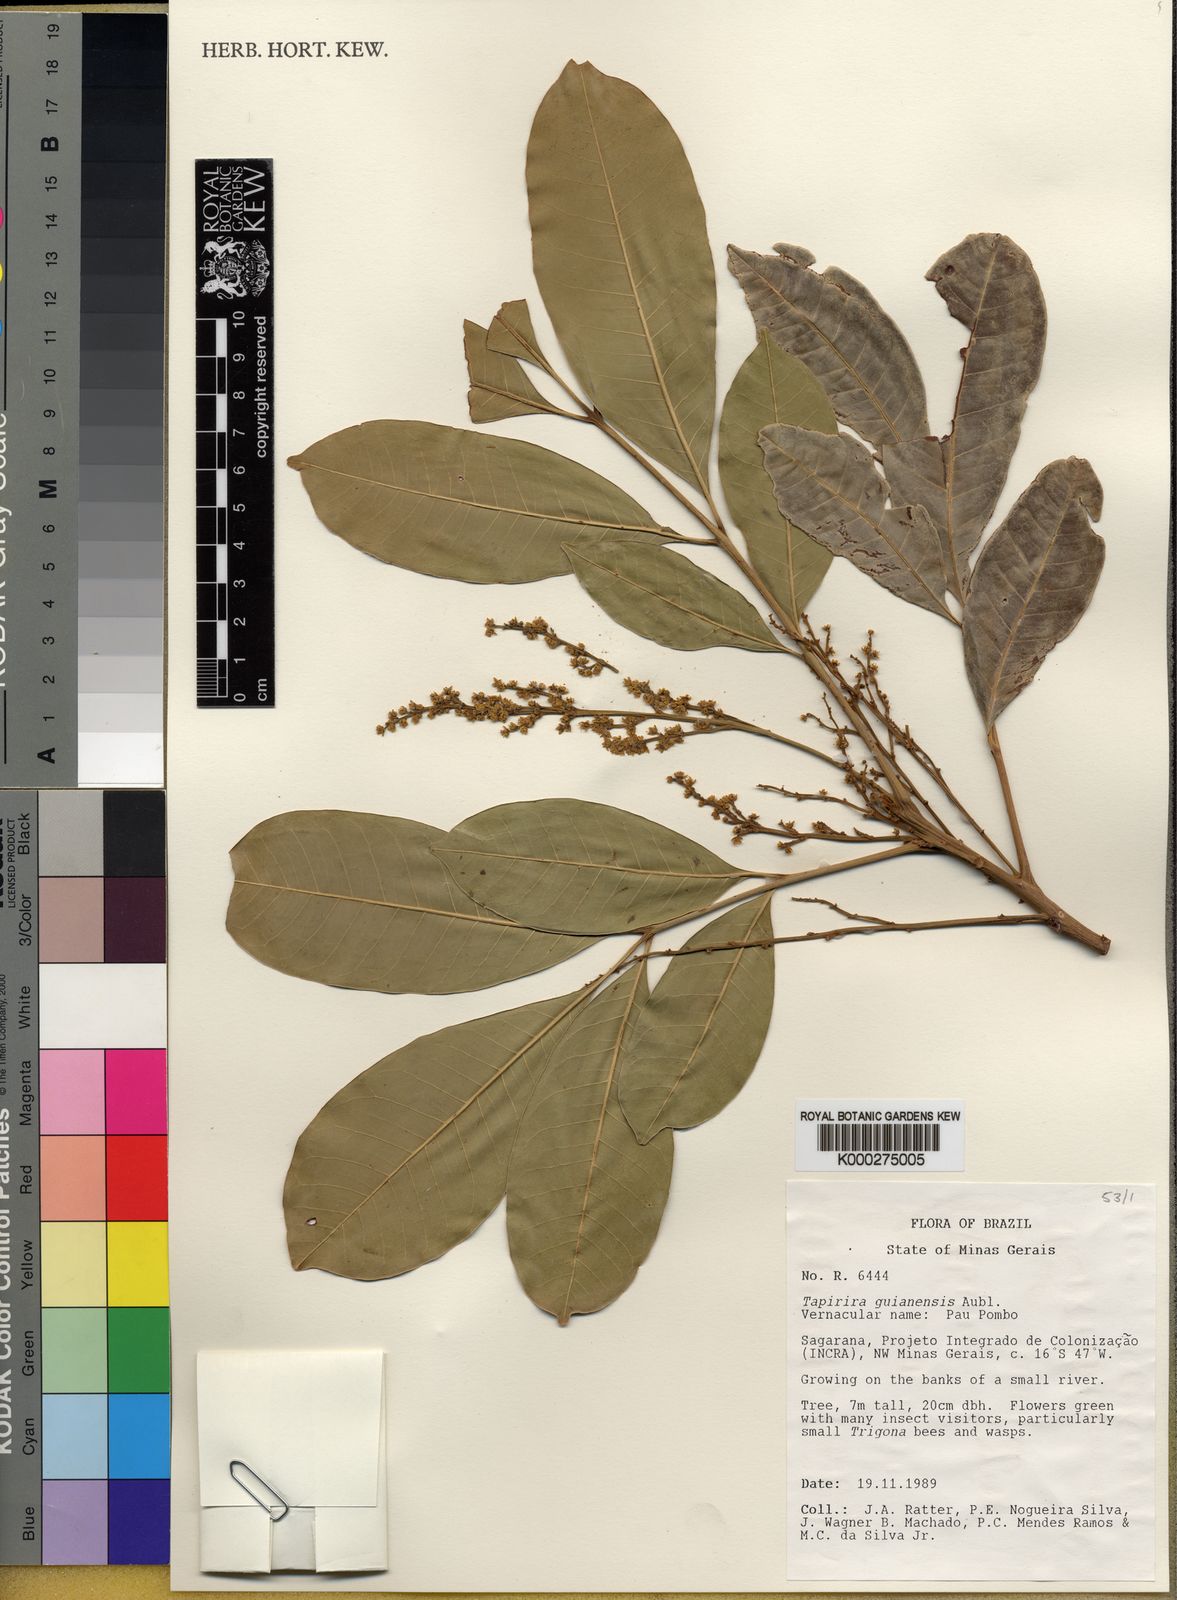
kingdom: Plantae
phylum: Tracheophyta
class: Magnoliopsida
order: Sapindales
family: Anacardiaceae
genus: Tapirira
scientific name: Tapirira guianensis
